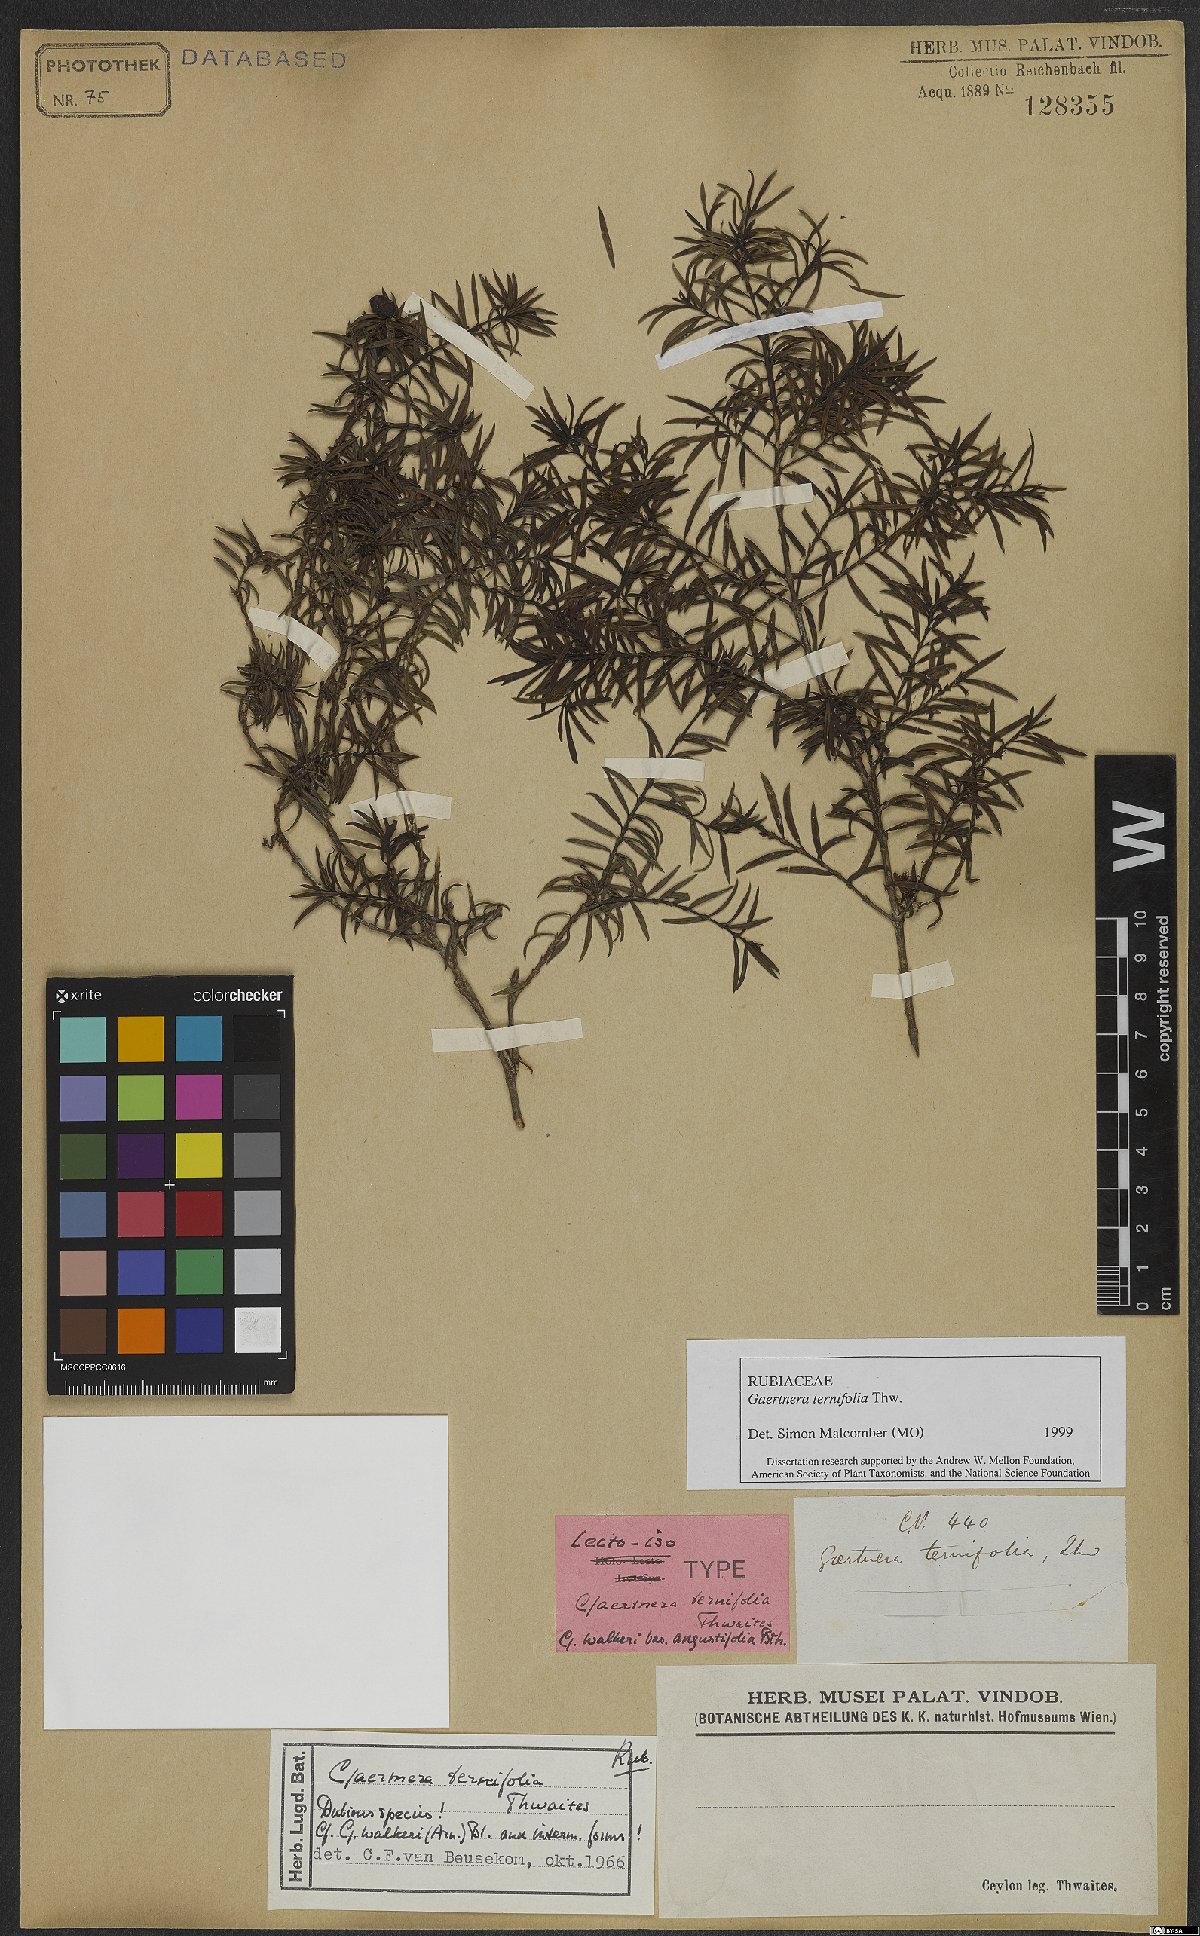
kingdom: Plantae
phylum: Tracheophyta
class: Magnoliopsida
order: Gentianales
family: Rubiaceae
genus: Gaertnera
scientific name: Gaertnera ternifolia
